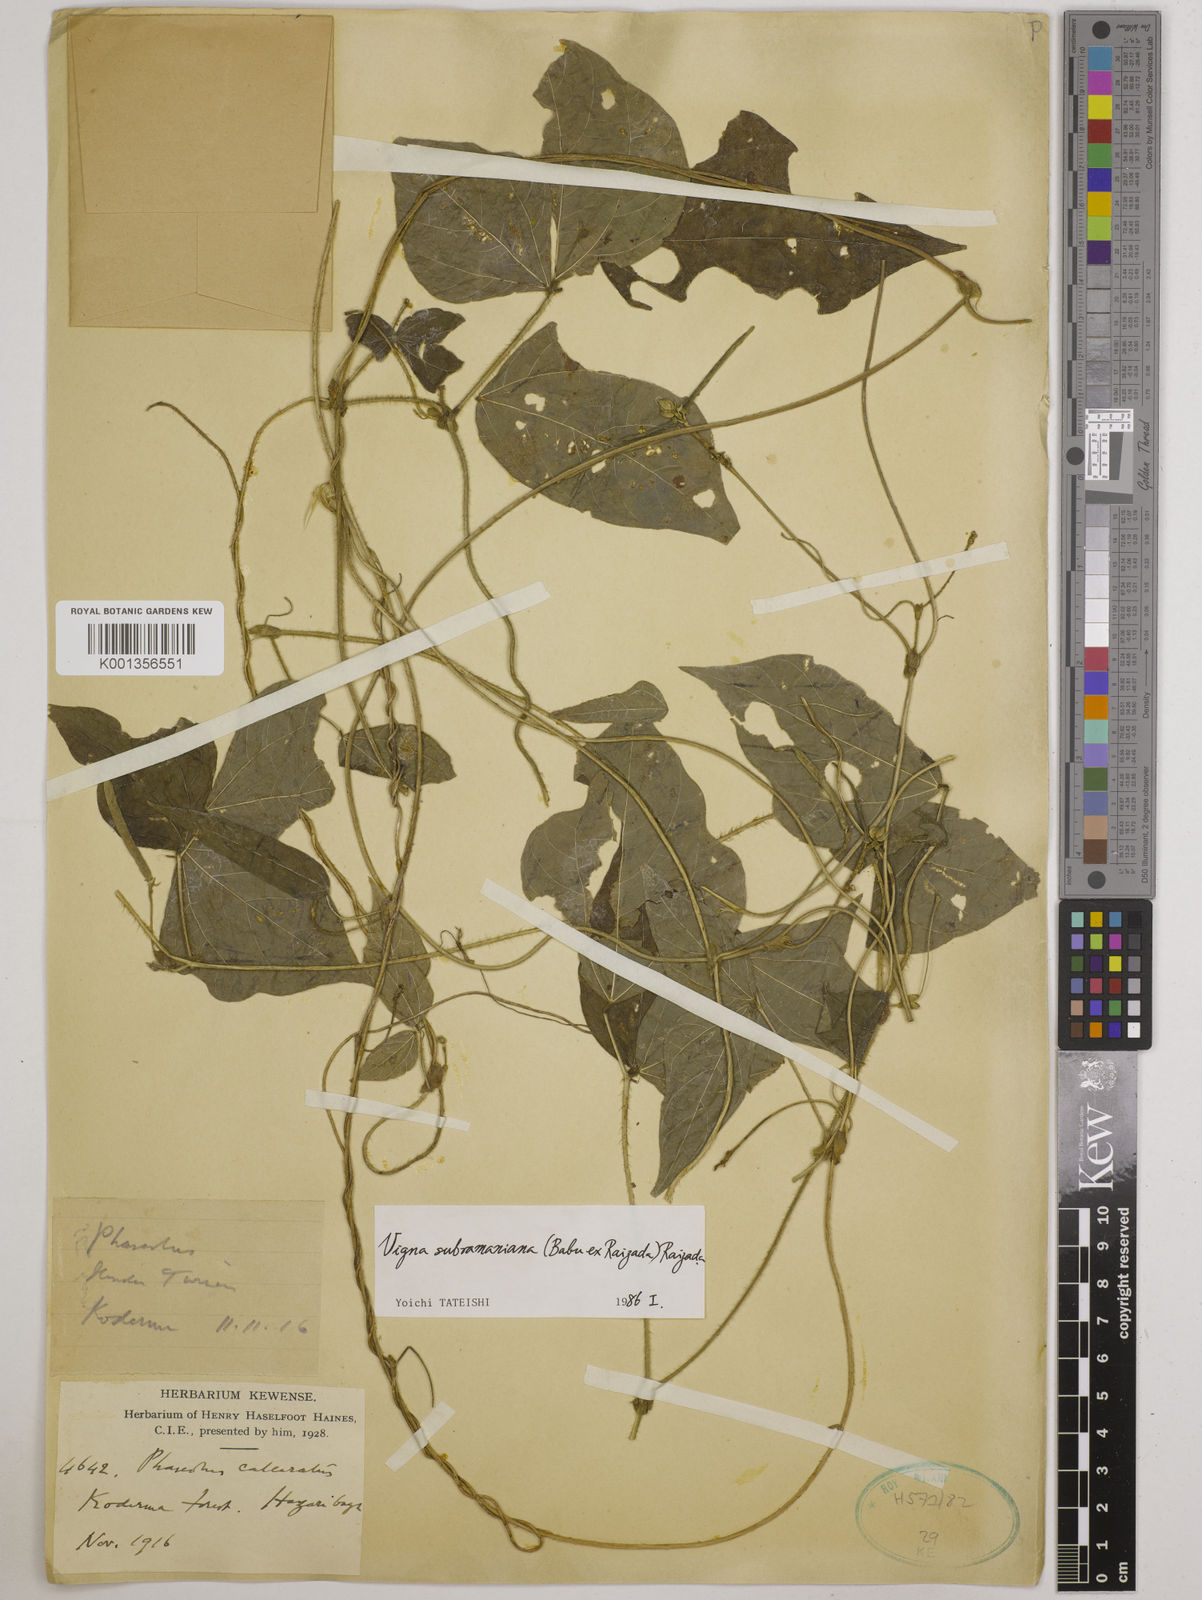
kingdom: Plantae
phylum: Tracheophyta
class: Magnoliopsida
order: Fabales
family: Fabaceae
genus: Vigna
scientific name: Vigna subramaniana
